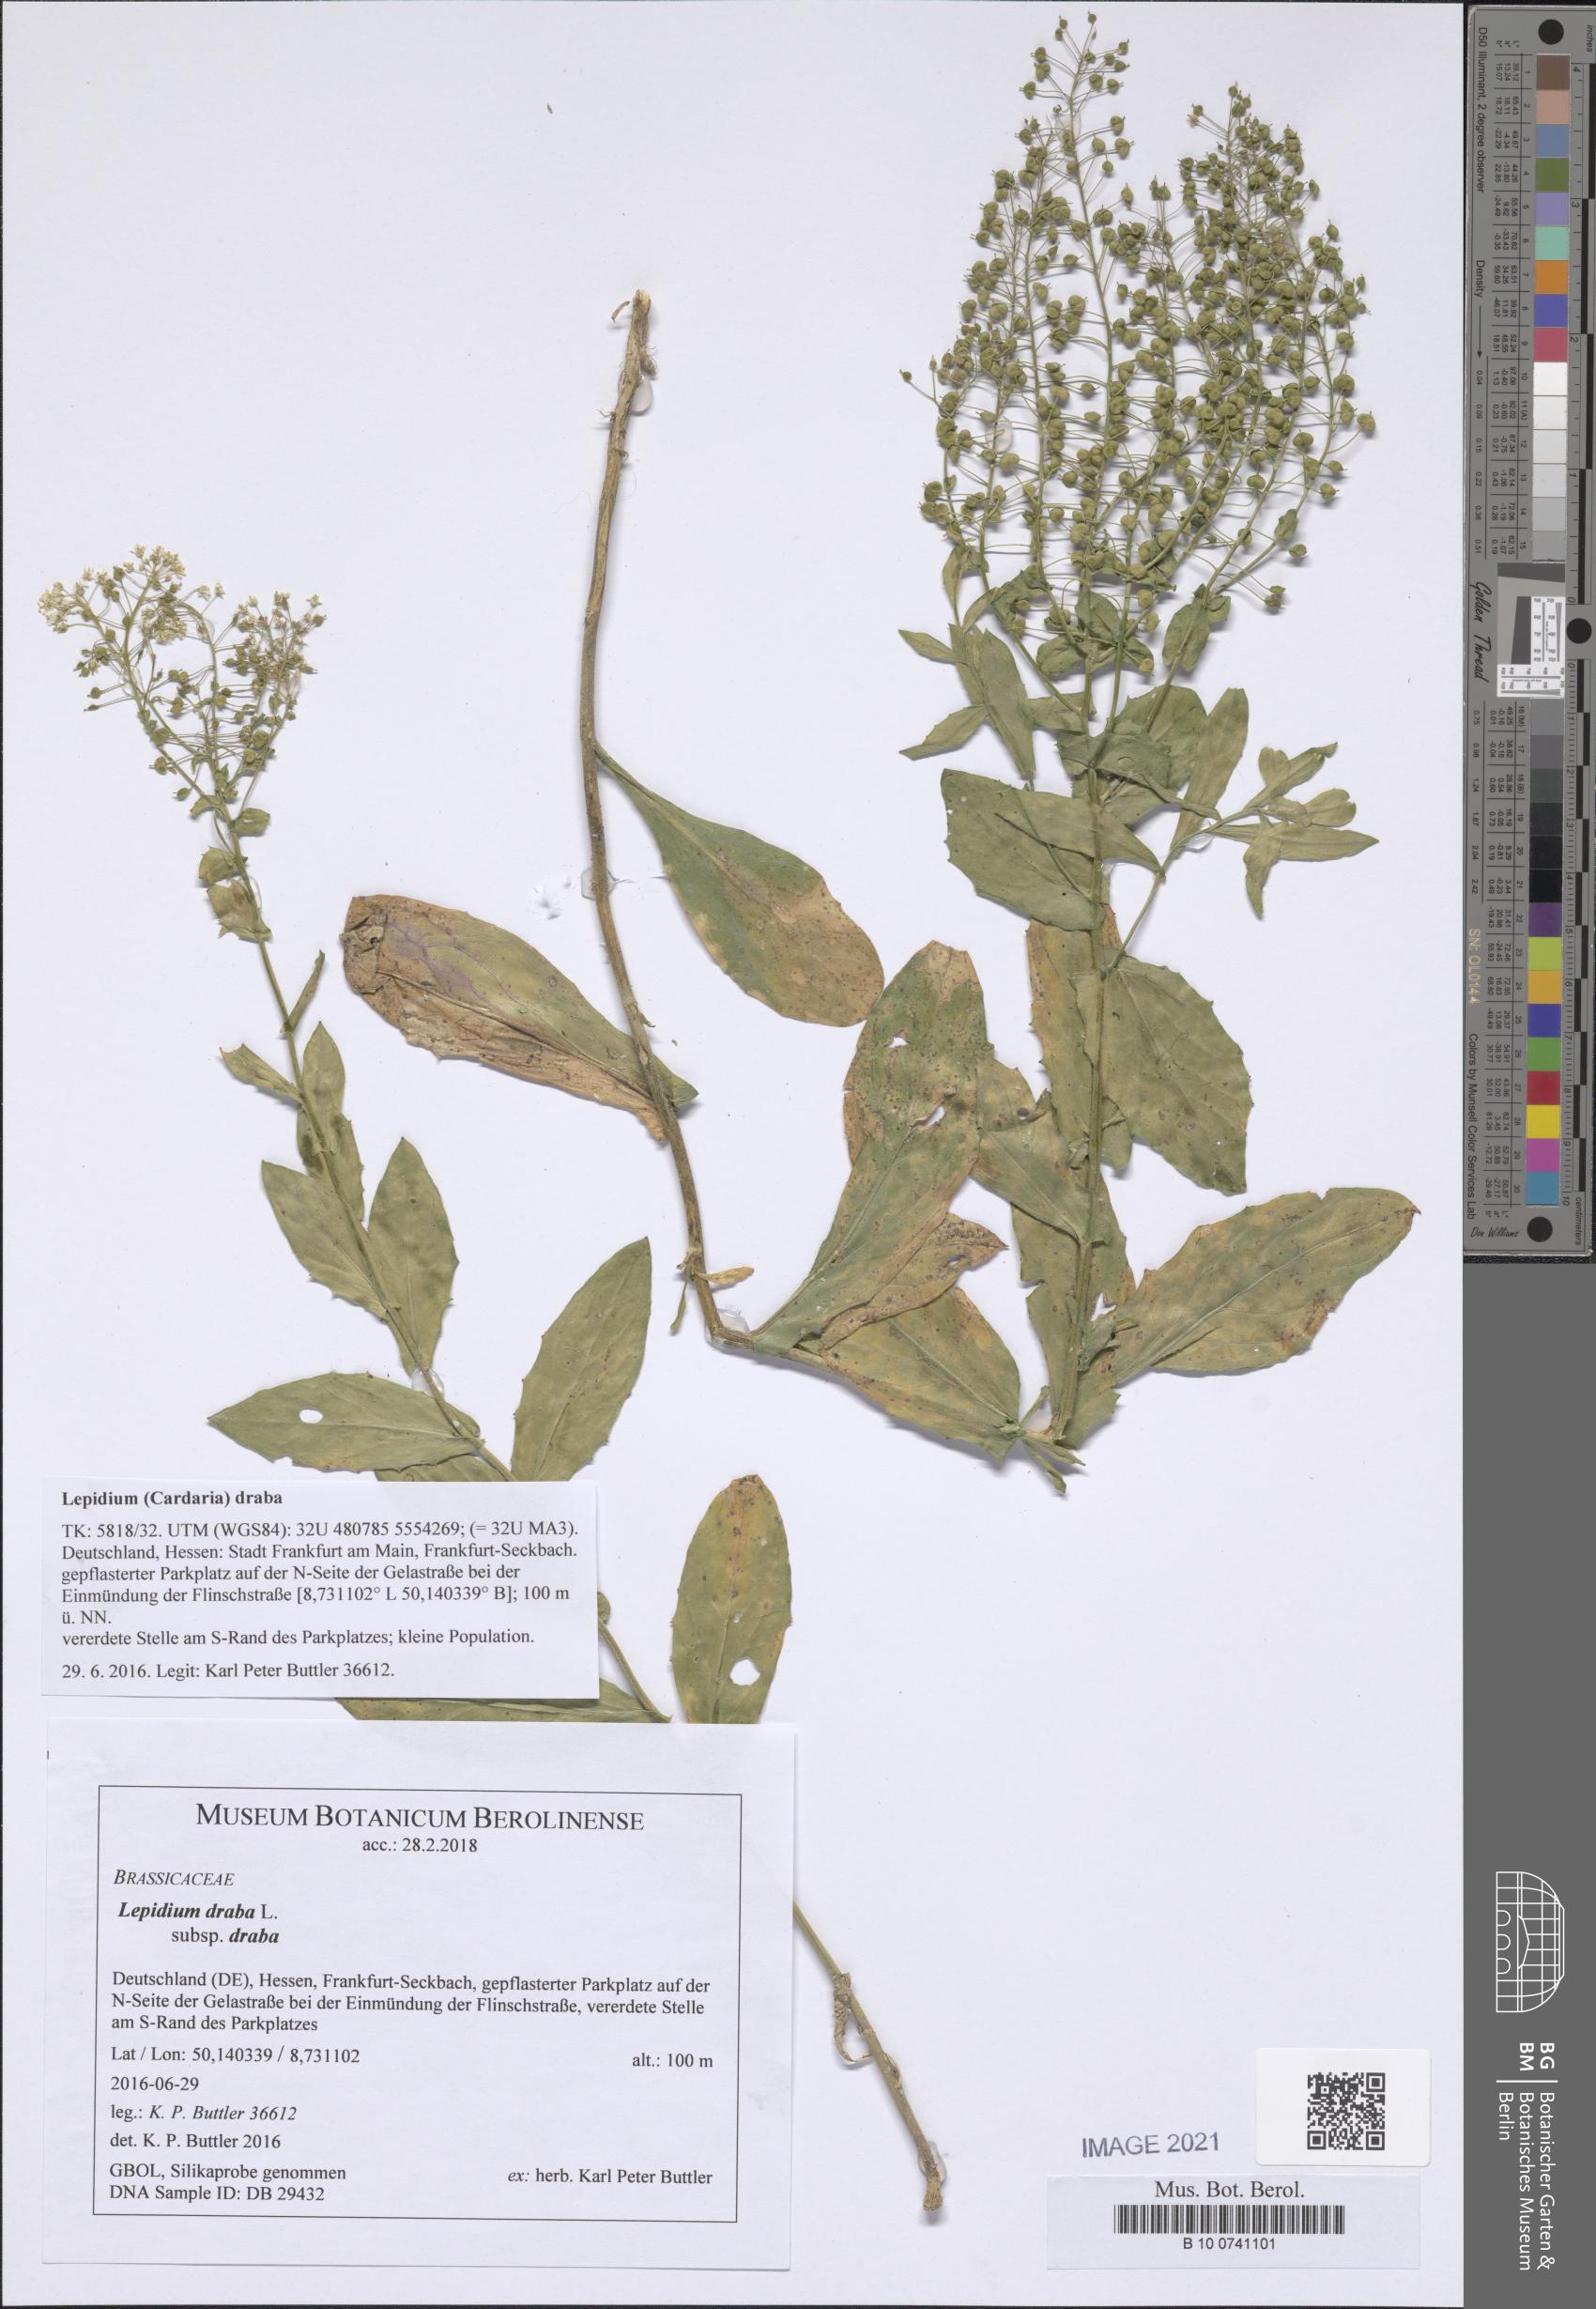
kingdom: Plantae
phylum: Tracheophyta
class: Magnoliopsida
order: Brassicales
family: Brassicaceae
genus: Lepidium
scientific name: Lepidium draba
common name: Hoary cress
